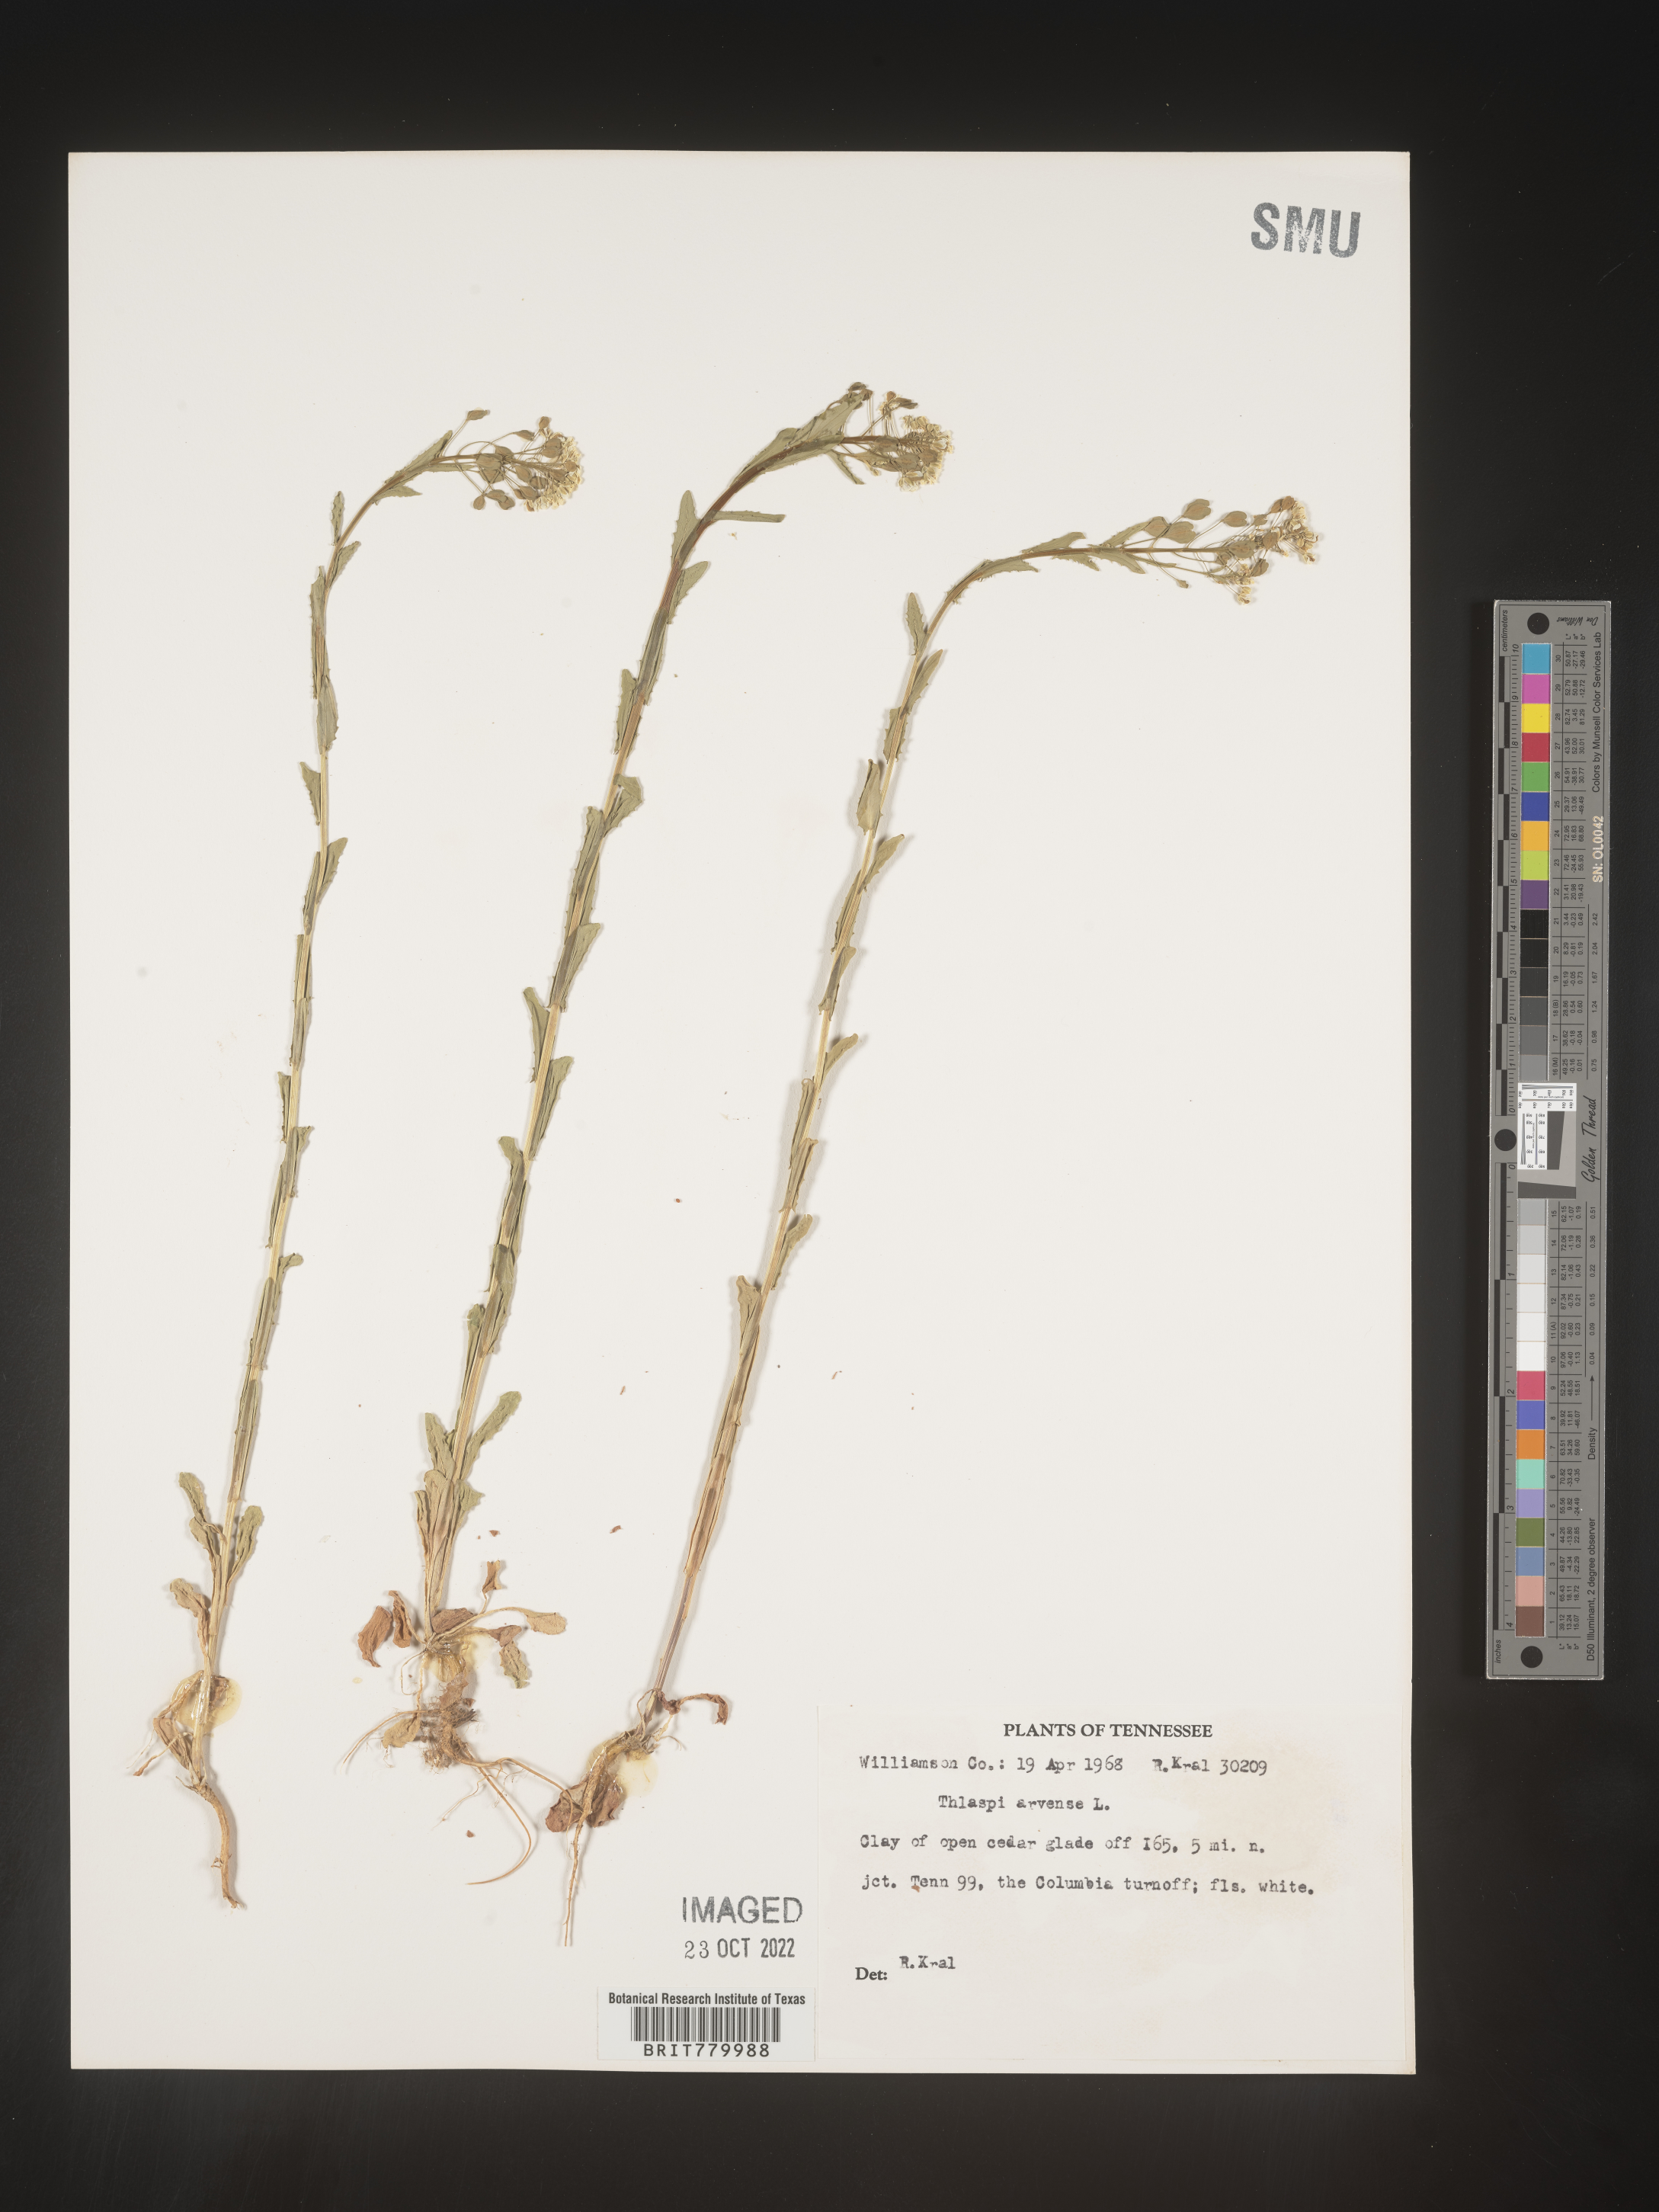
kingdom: Plantae
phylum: Tracheophyta
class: Magnoliopsida
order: Brassicales
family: Brassicaceae
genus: Thlaspi
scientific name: Thlaspi arvense
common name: Field pennycress
